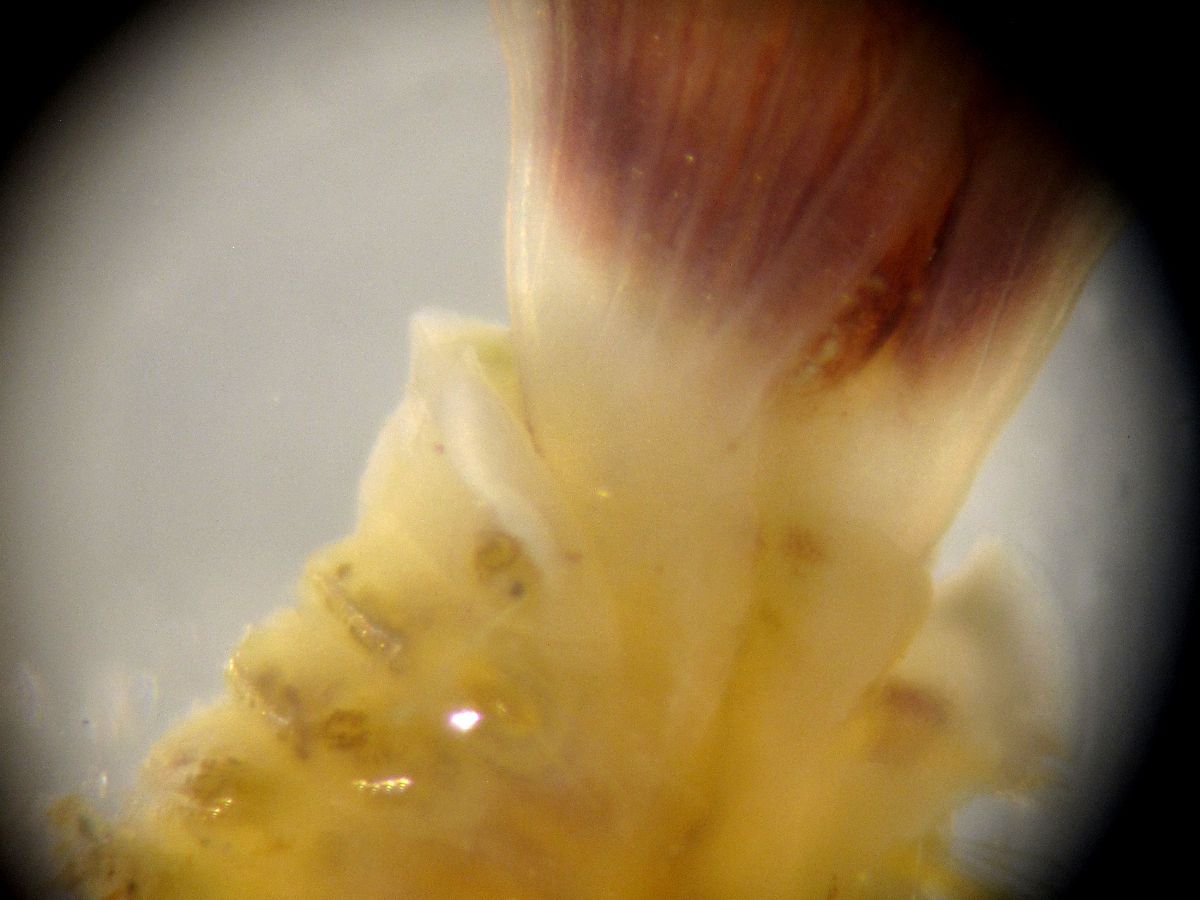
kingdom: Animalia
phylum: Annelida
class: Polychaeta
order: Sabellida
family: Sabellidae
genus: Euchone
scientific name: Euchone analis
